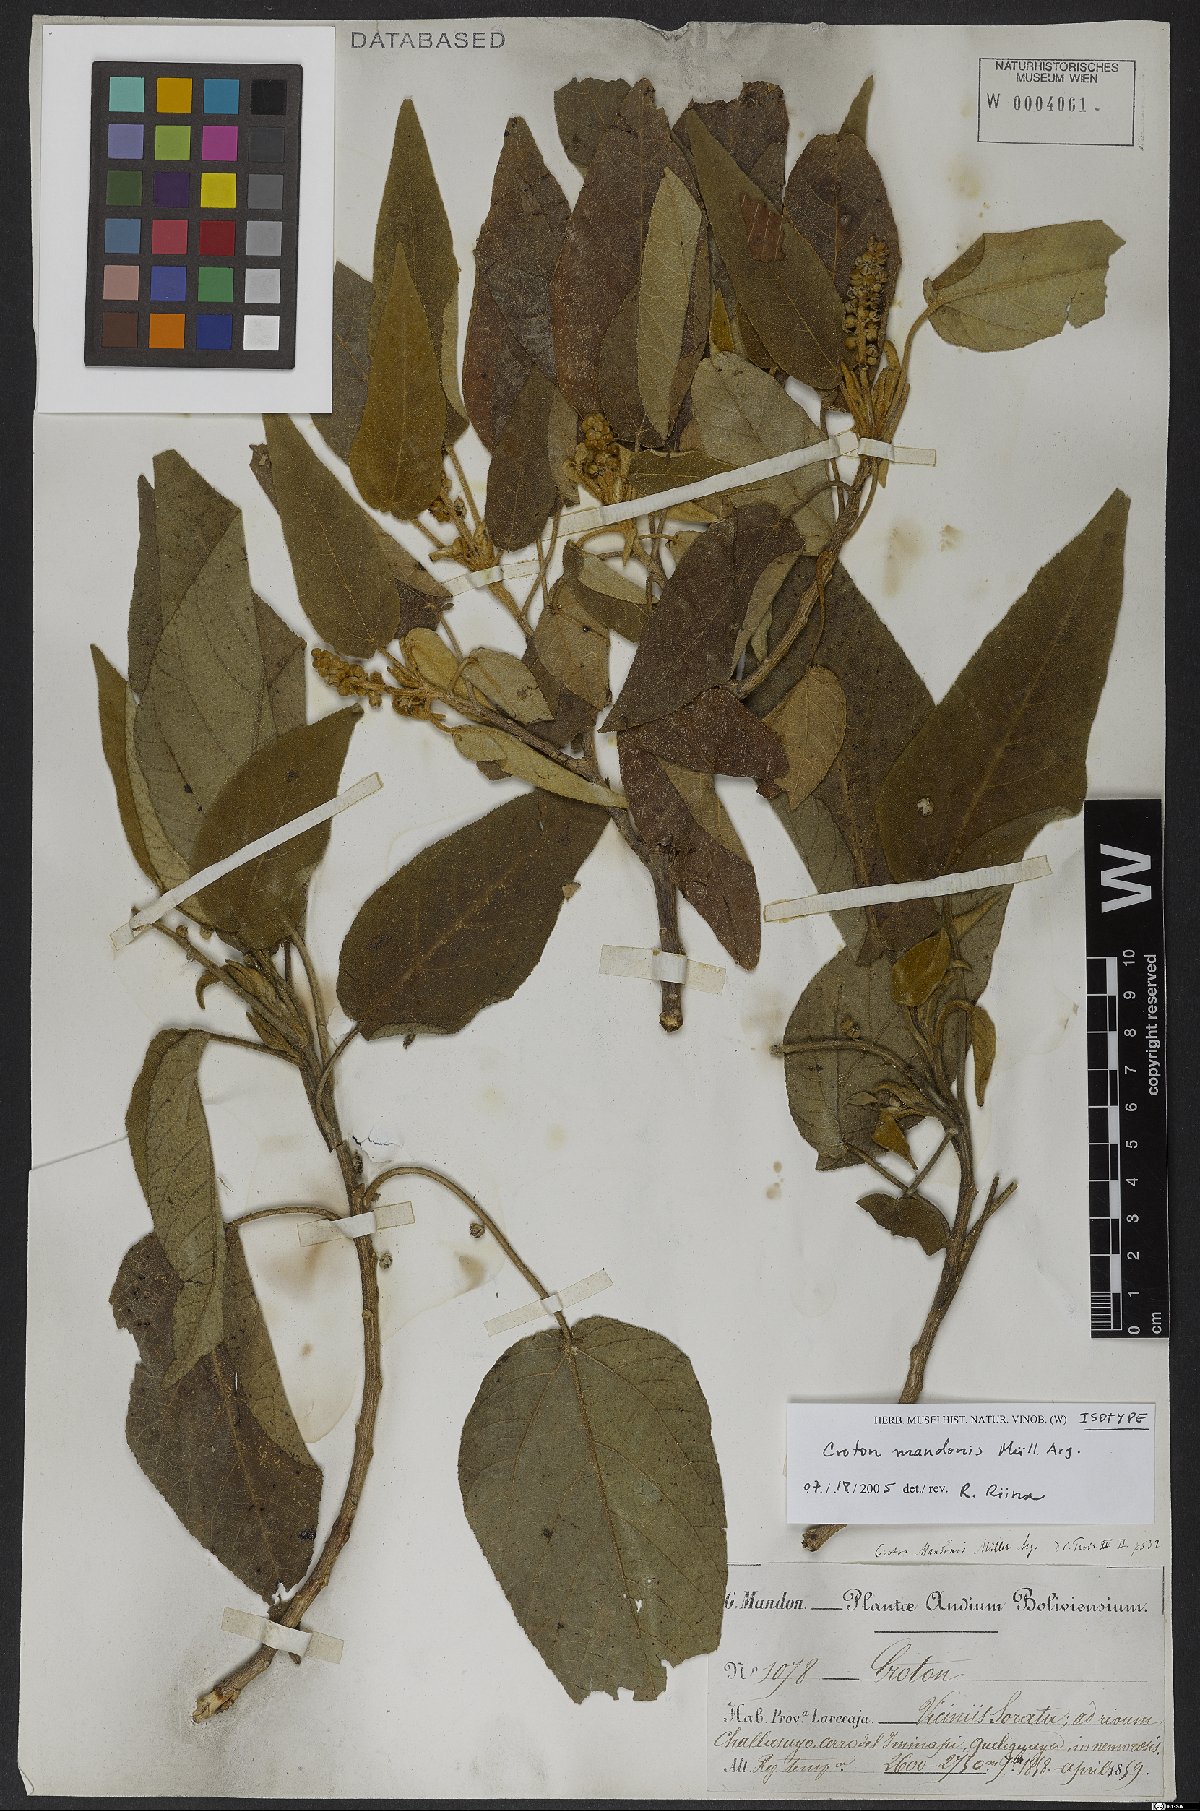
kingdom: Plantae
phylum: Tracheophyta
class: Magnoliopsida
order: Malpighiales
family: Euphorbiaceae
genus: Croton
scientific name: Croton quadrisetosus
